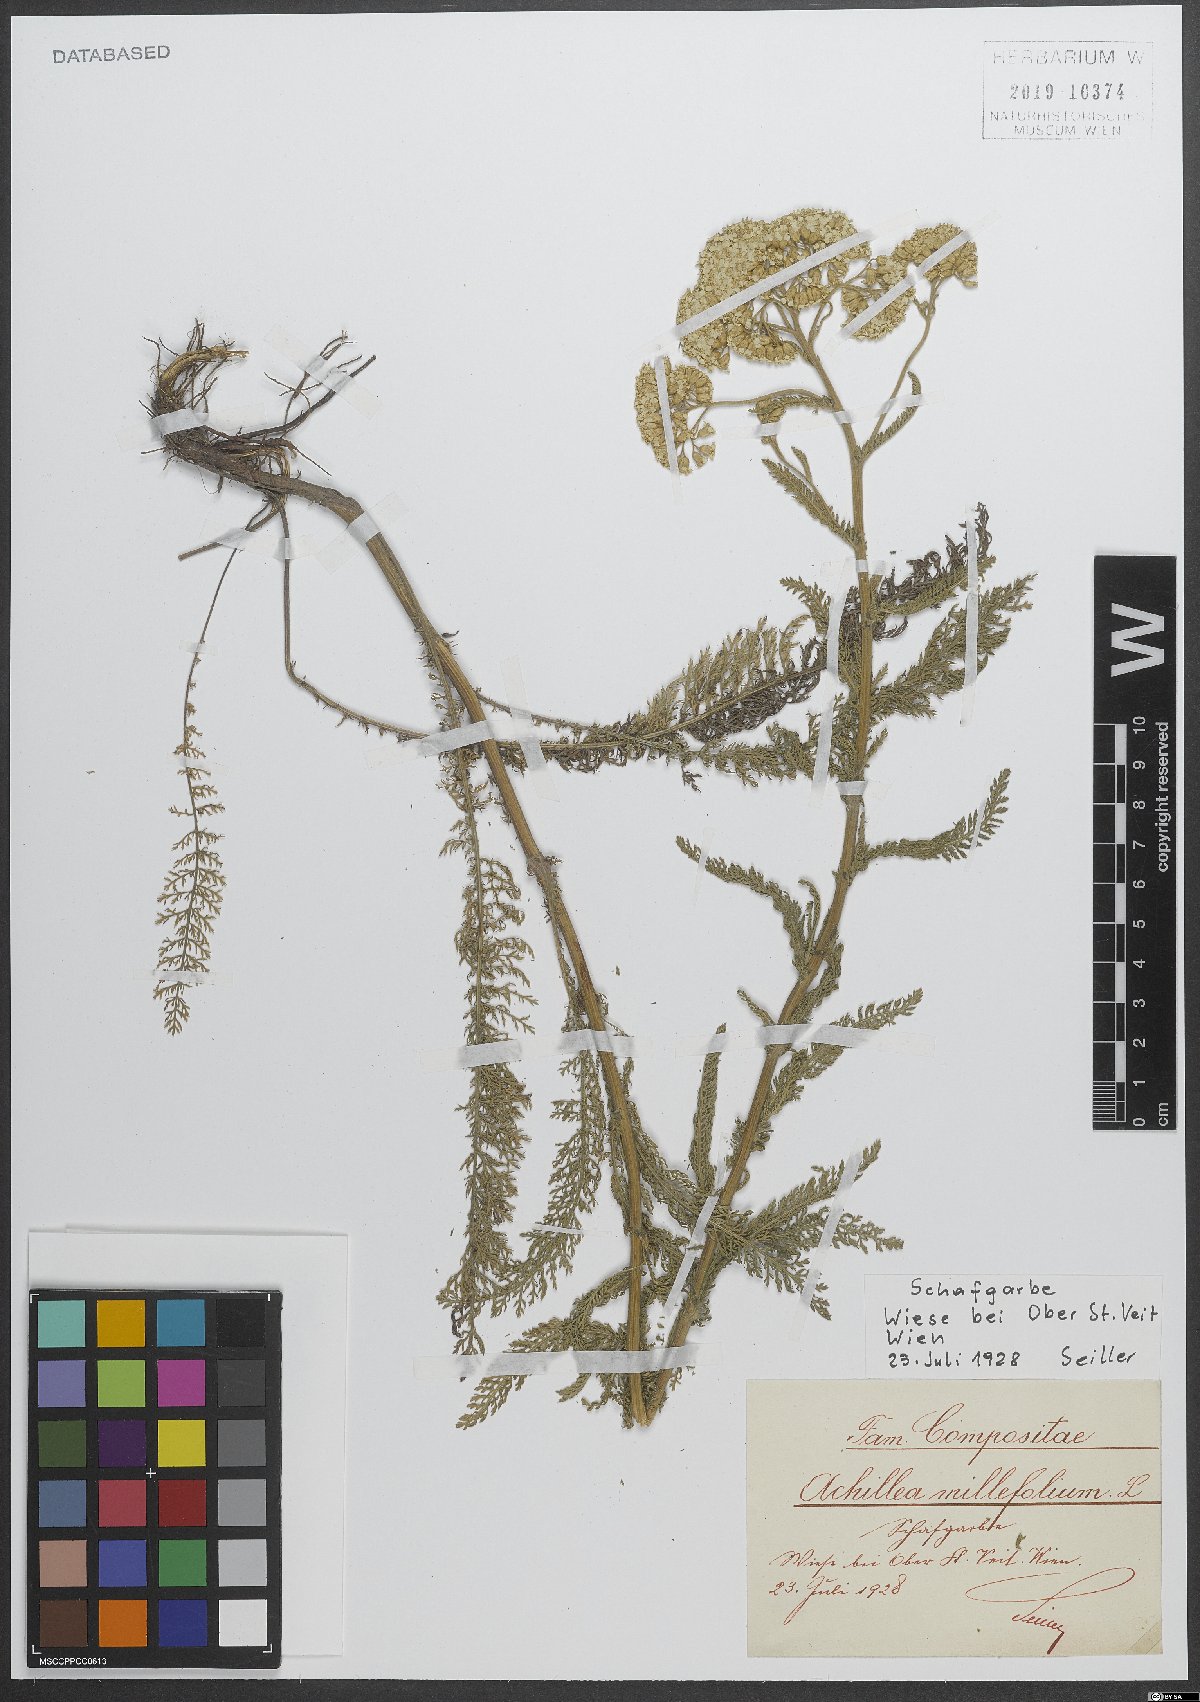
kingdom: Plantae
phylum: Tracheophyta
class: Magnoliopsida
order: Asterales
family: Asteraceae
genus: Achillea
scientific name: Achillea millefolium
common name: Yarrow
